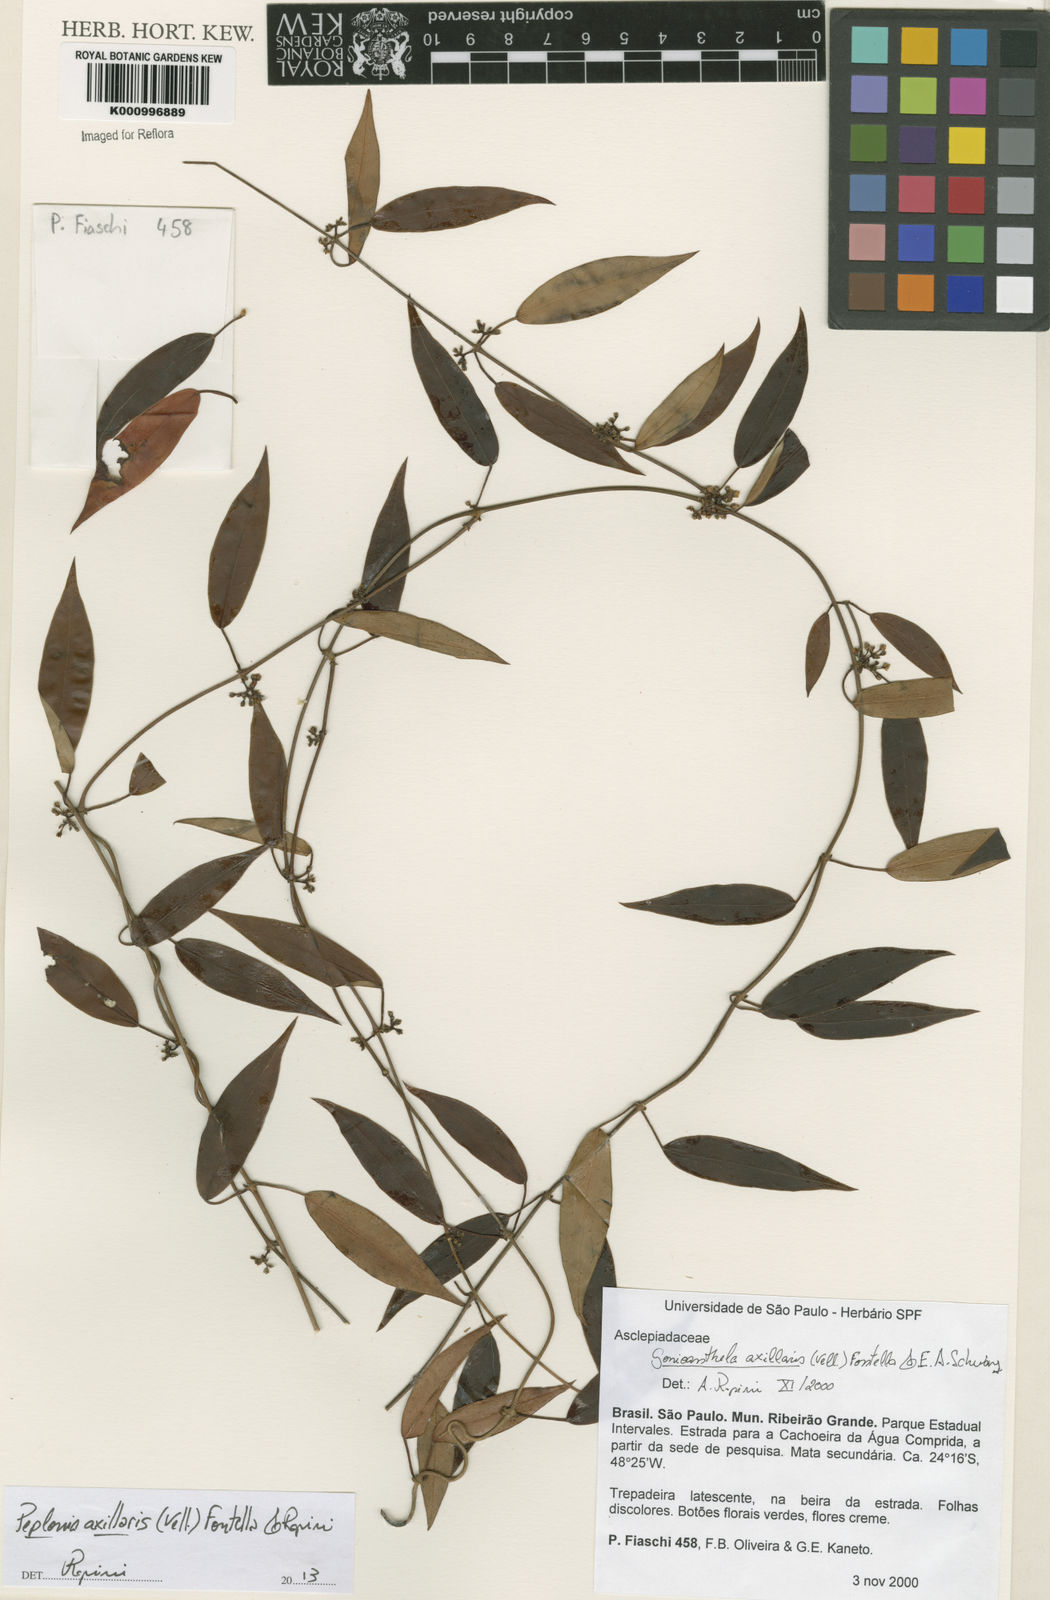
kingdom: Plantae
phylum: Tracheophyta
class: Magnoliopsida
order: Gentianales
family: Apocynaceae
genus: Peplonia
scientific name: Peplonia axillaris
